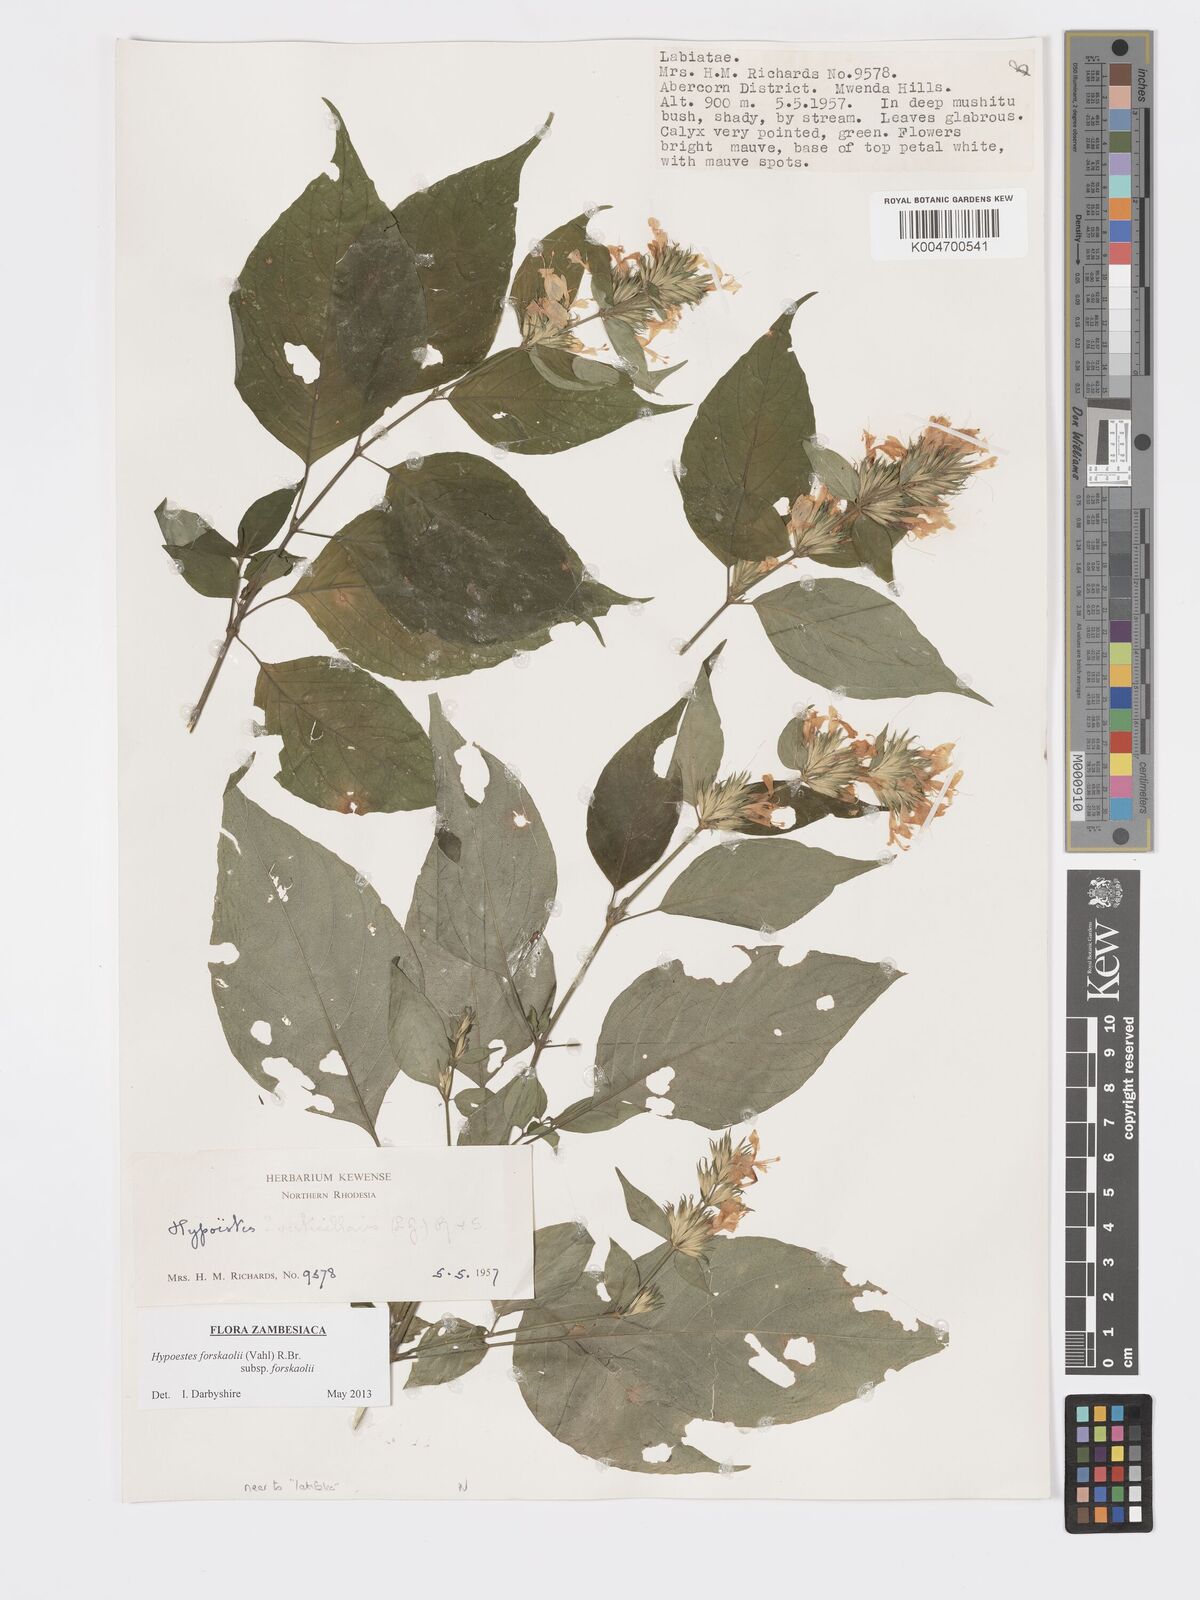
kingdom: Plantae
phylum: Tracheophyta
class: Magnoliopsida
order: Lamiales
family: Acanthaceae
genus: Hypoestes
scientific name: Hypoestes forskaolii
